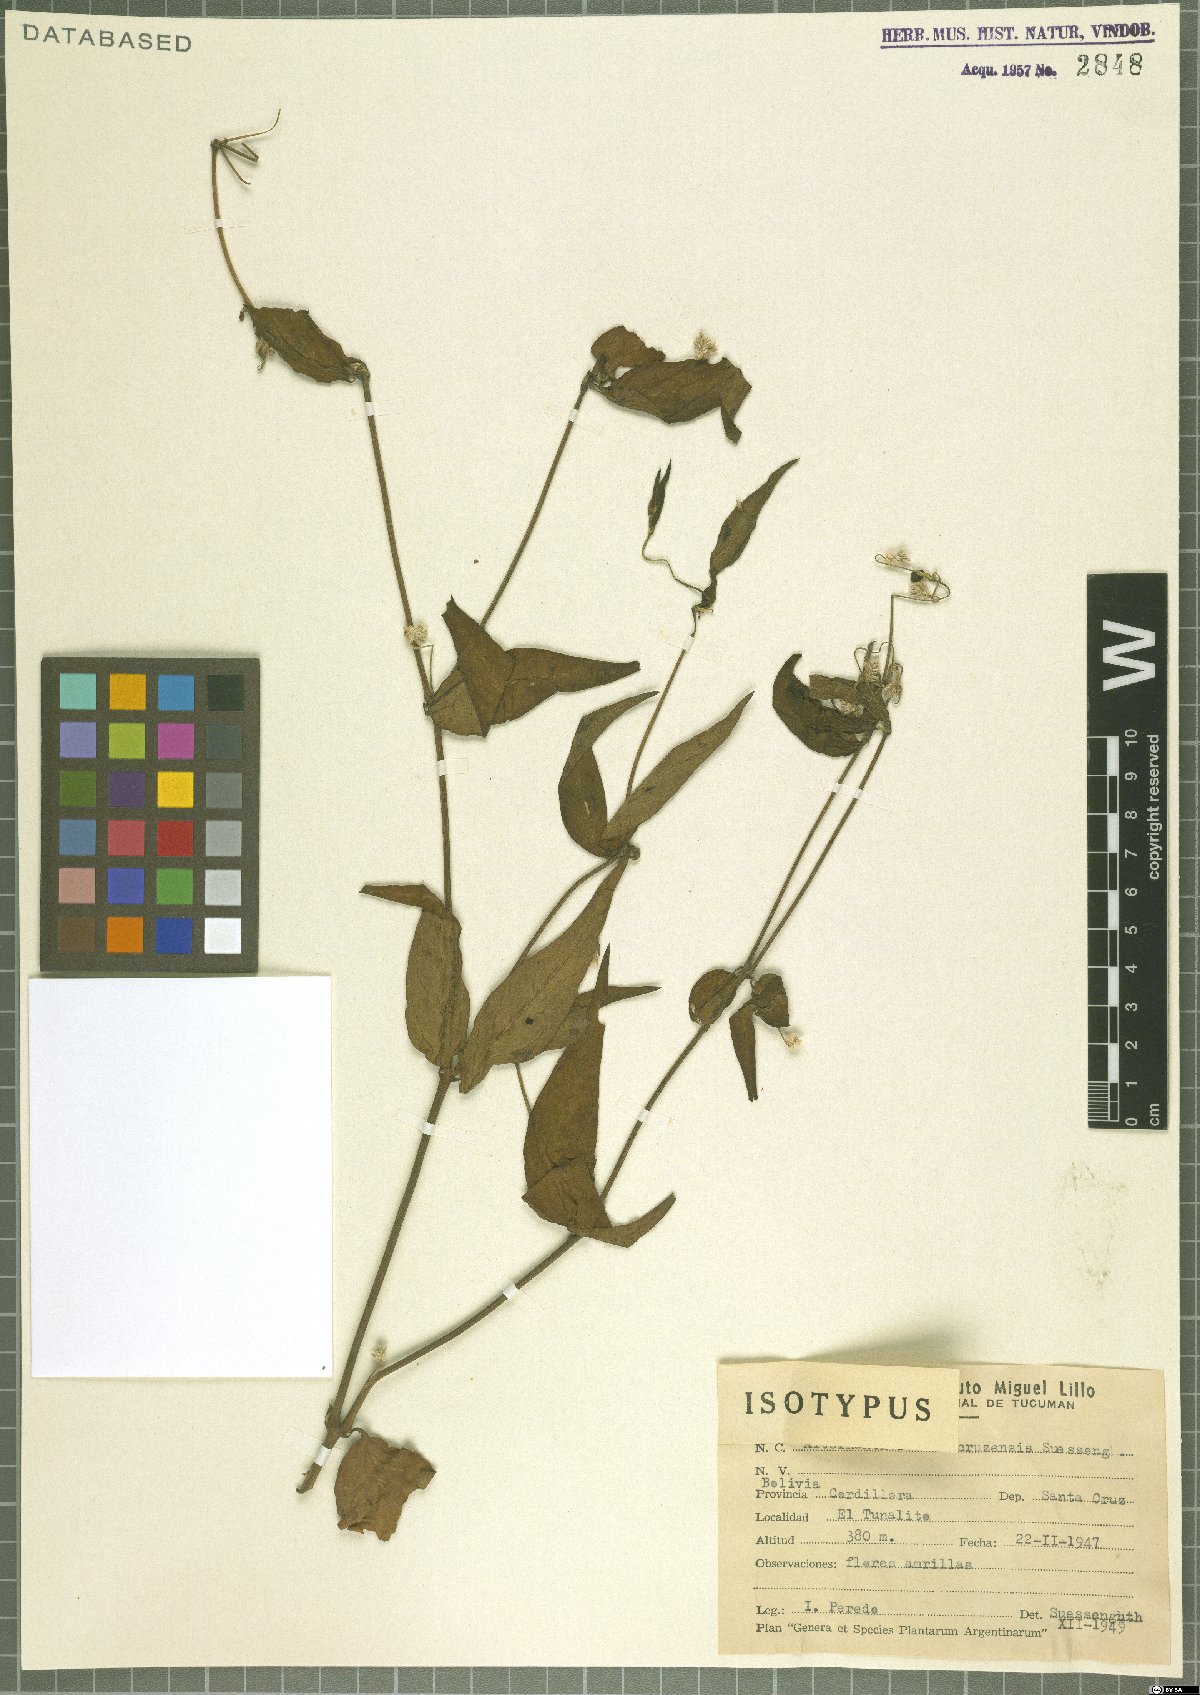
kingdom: Plantae
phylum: Tracheophyta
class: Magnoliopsida
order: Caryophyllales
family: Amaranthaceae
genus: Alternanthera
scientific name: Alternanthera altacruzensis
